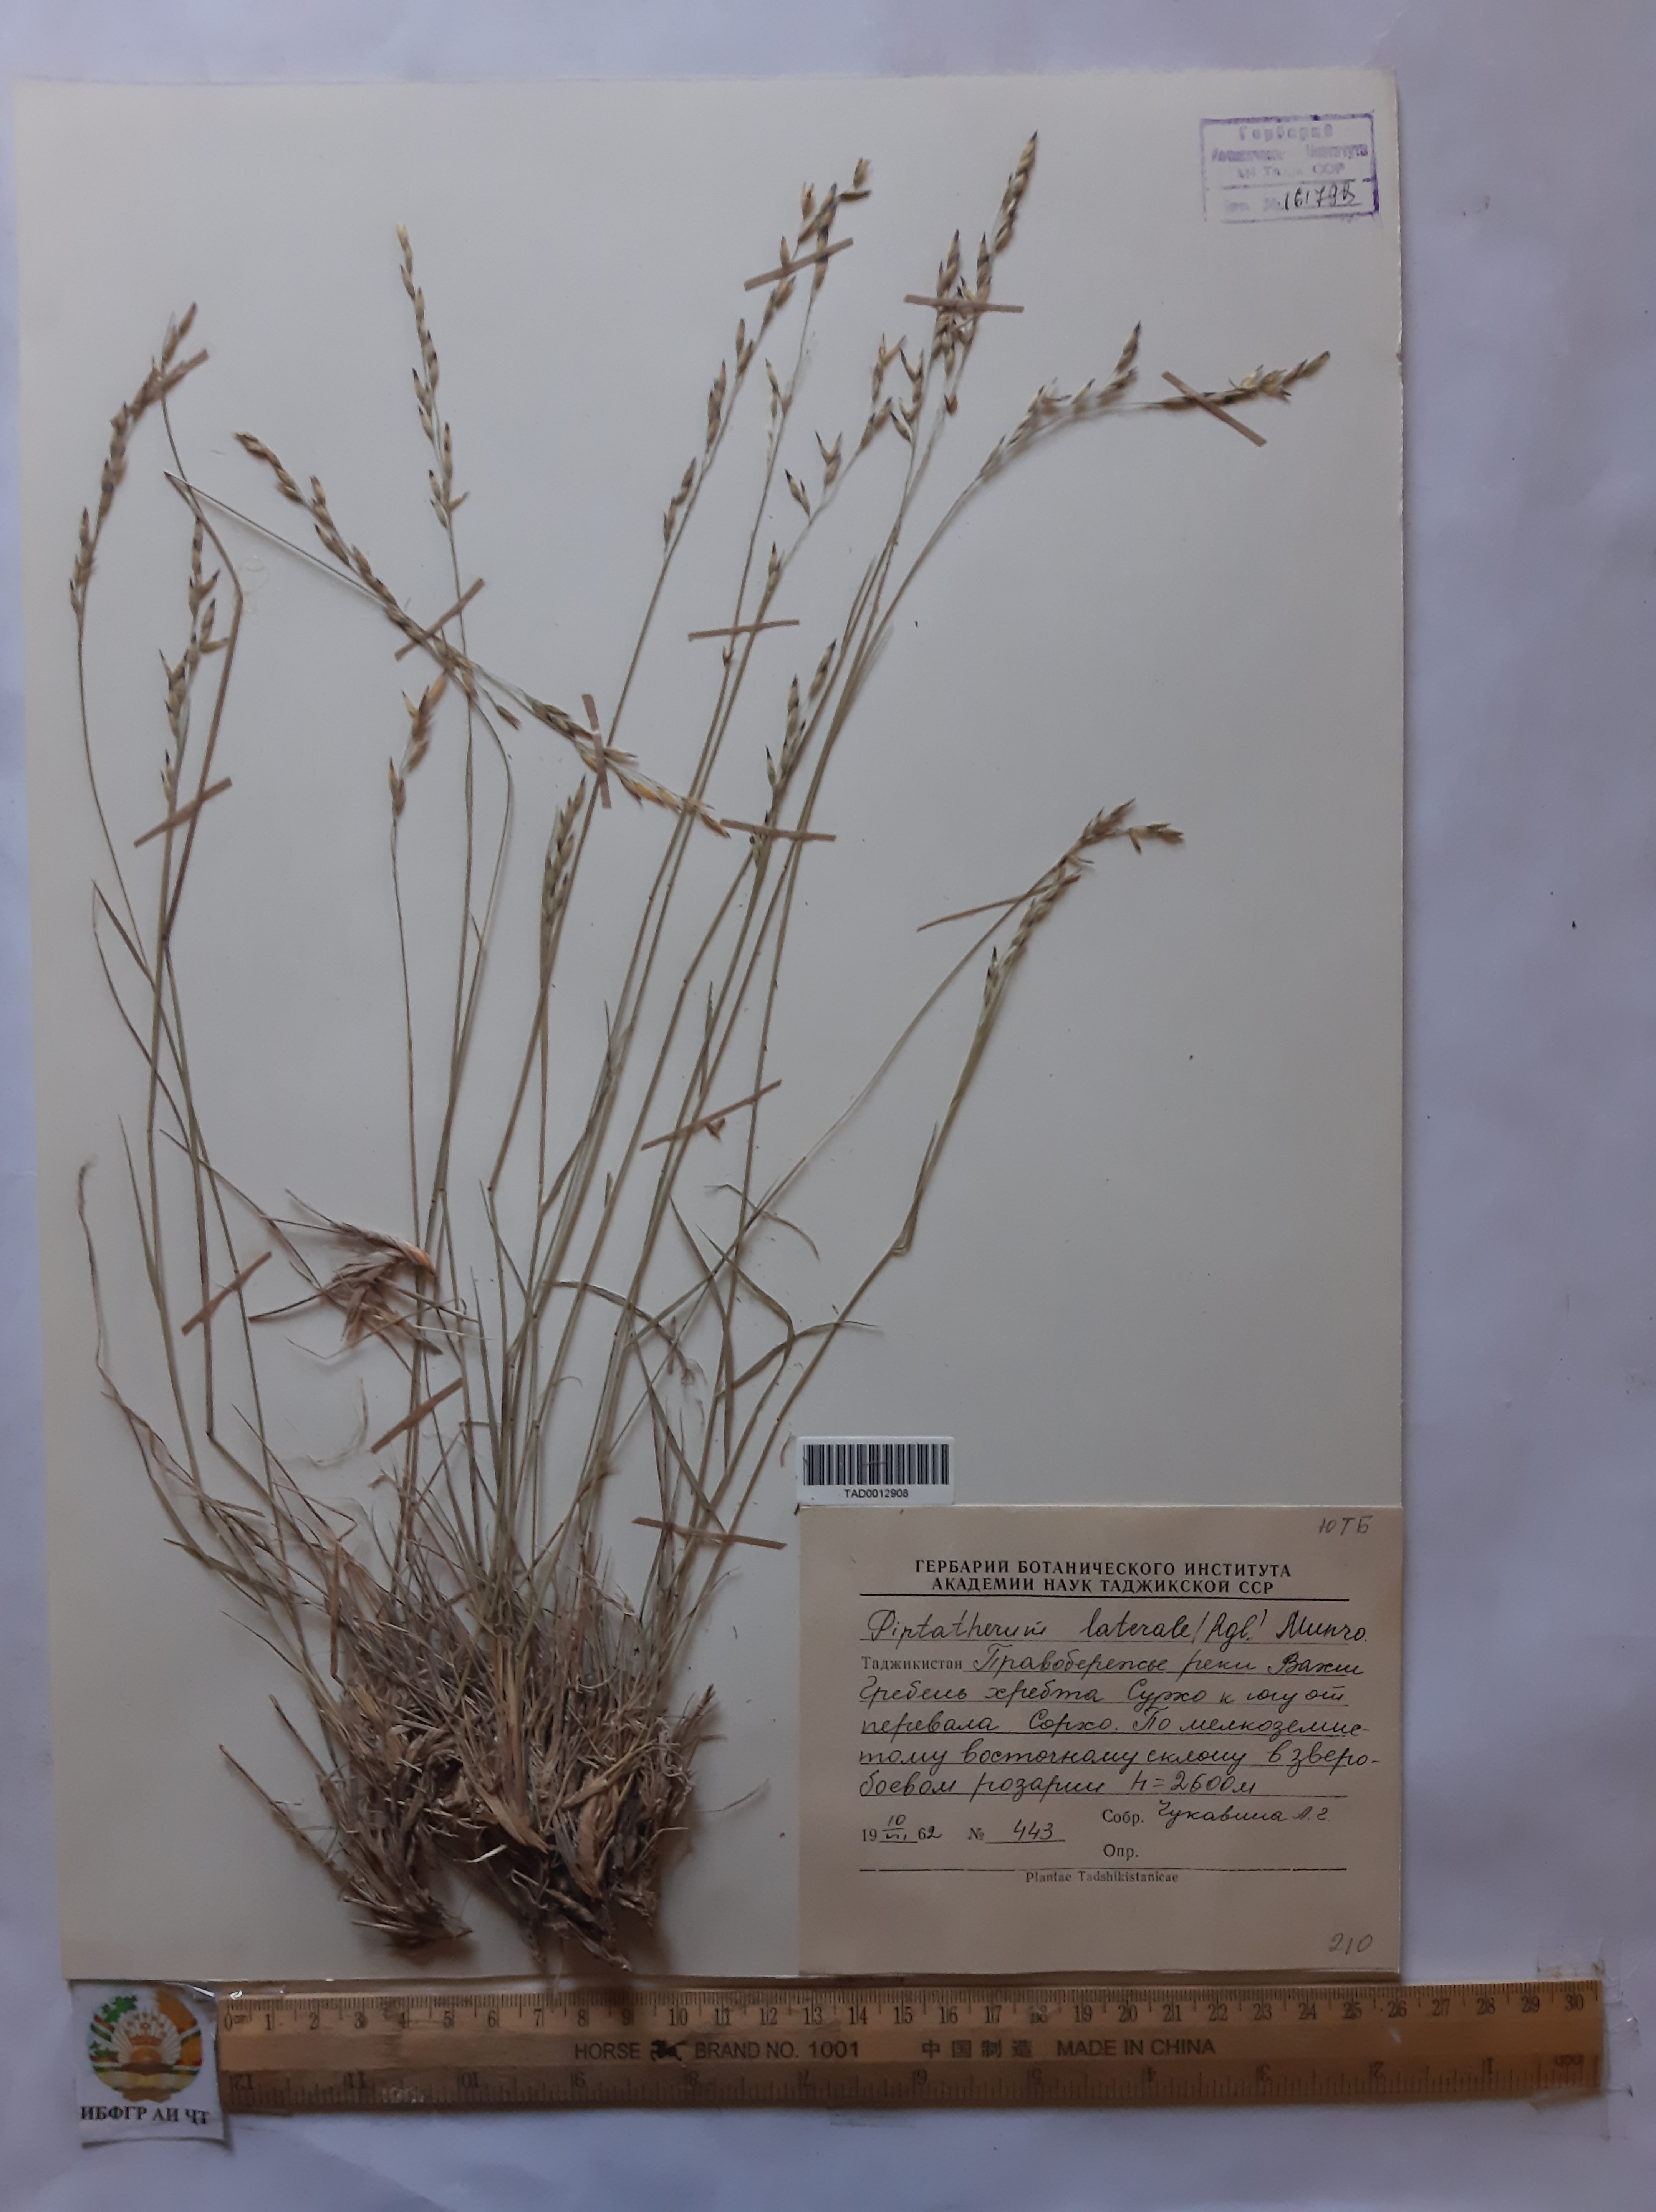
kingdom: Plantae
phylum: Tracheophyta
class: Liliopsida
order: Poales
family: Poaceae
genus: Piptatherum
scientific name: Piptatherum laterale
